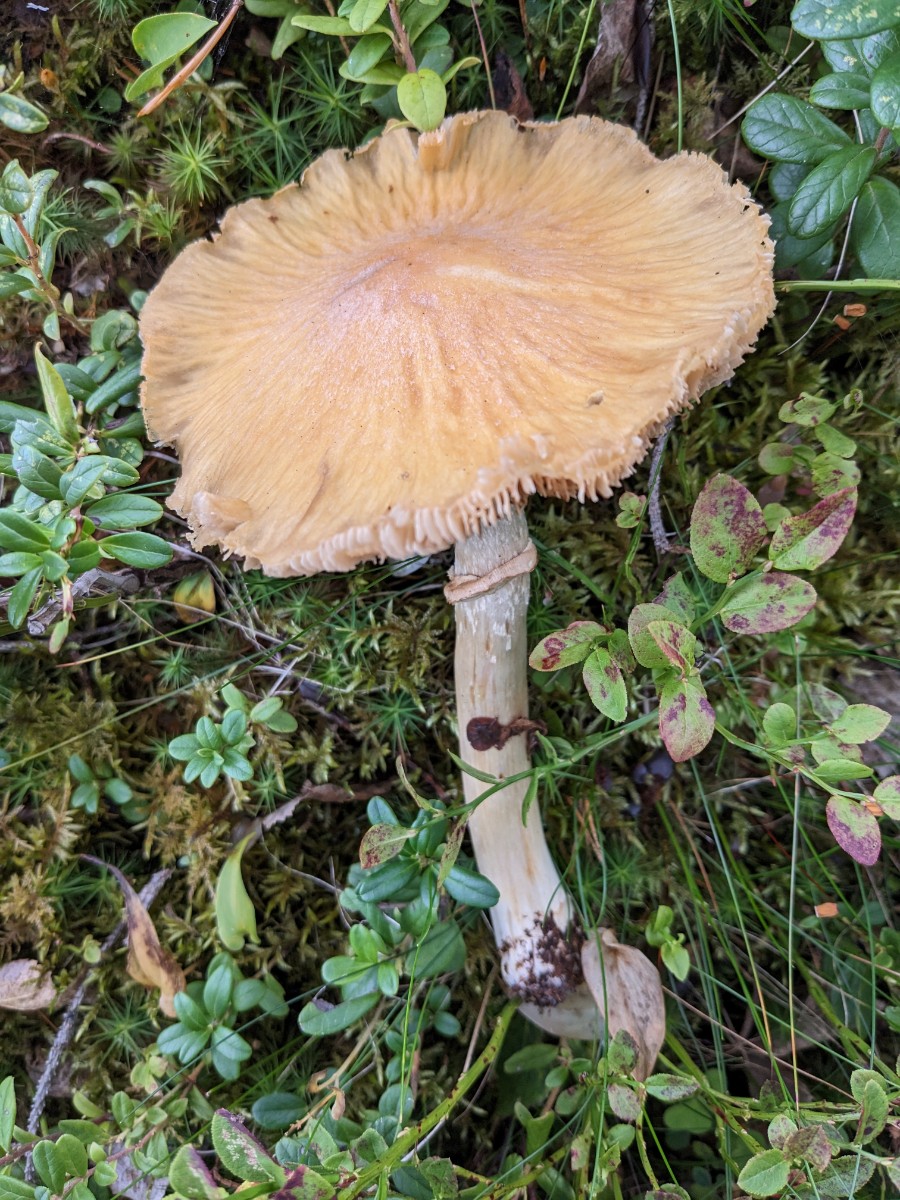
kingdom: Fungi
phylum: Basidiomycota
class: Agaricomycetes
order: Agaricales
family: Cortinariaceae
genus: Cortinarius
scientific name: Cortinarius caperatus
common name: klidhat
